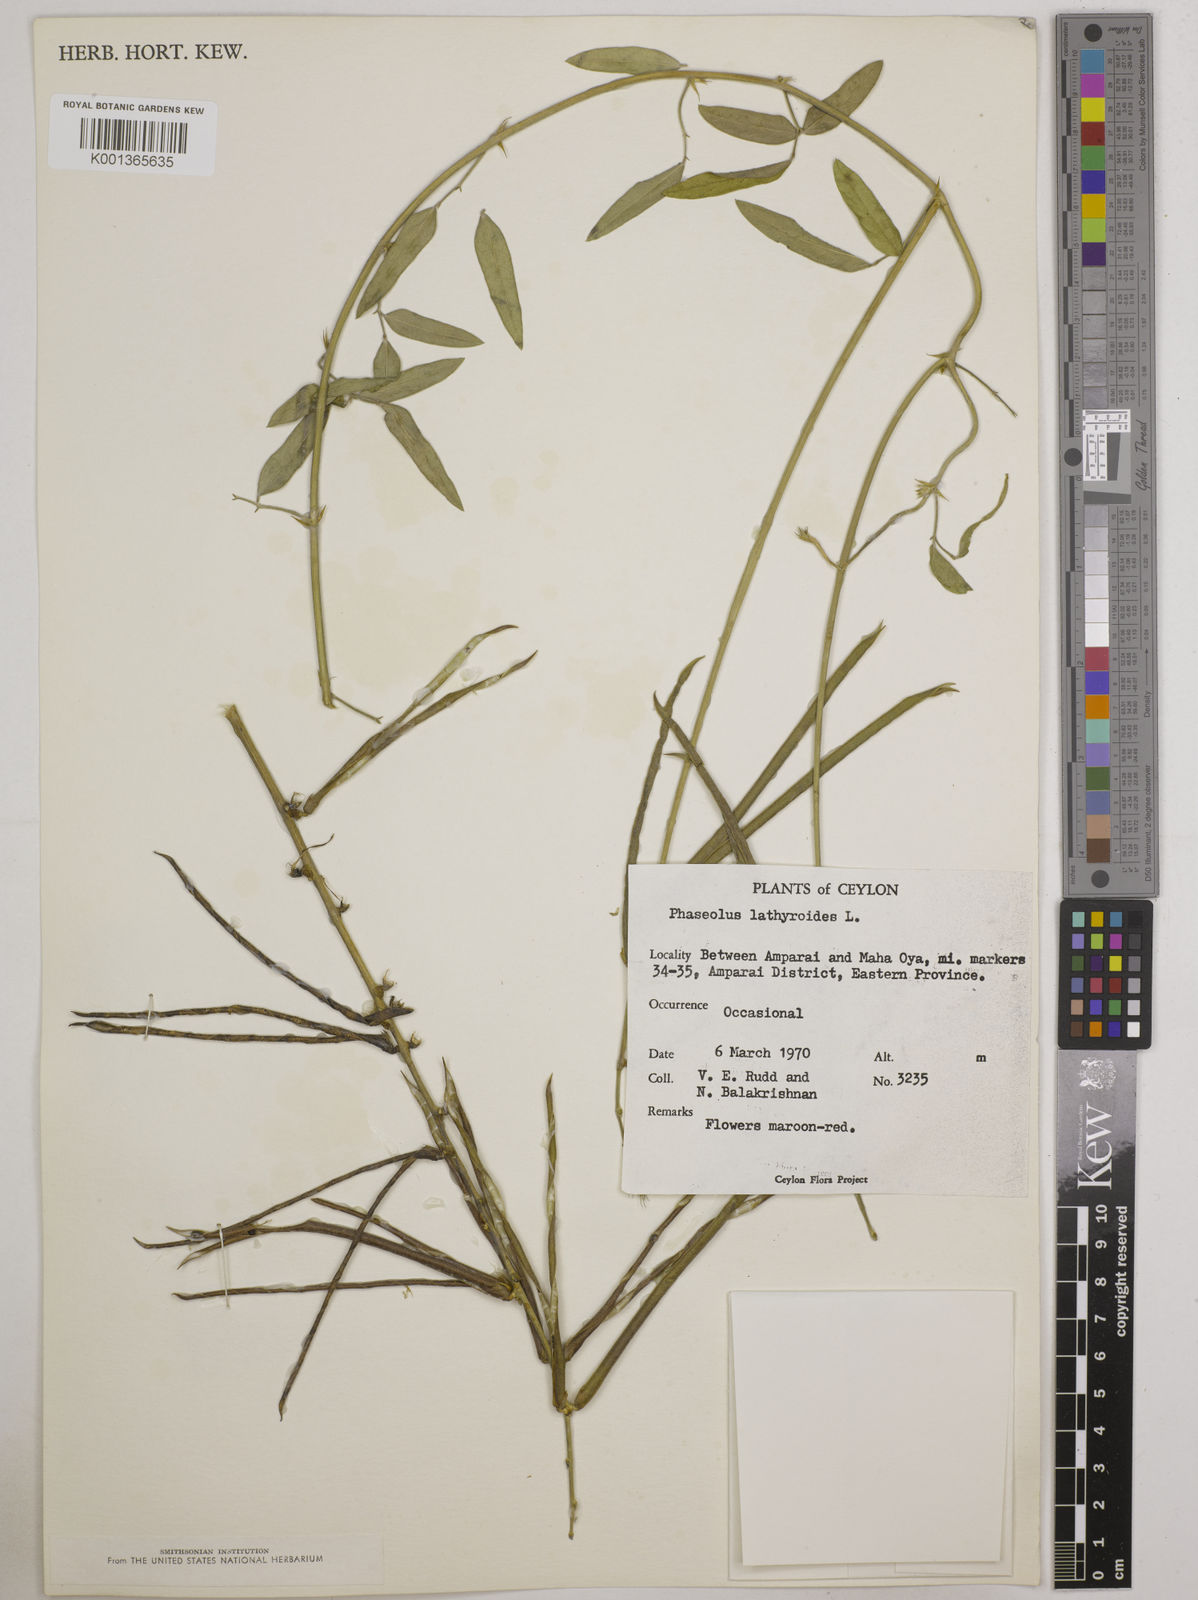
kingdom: Plantae
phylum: Tracheophyta
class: Magnoliopsida
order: Fabales
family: Fabaceae
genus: Macroptilium
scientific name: Macroptilium lathyroides
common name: Wild bushbean
